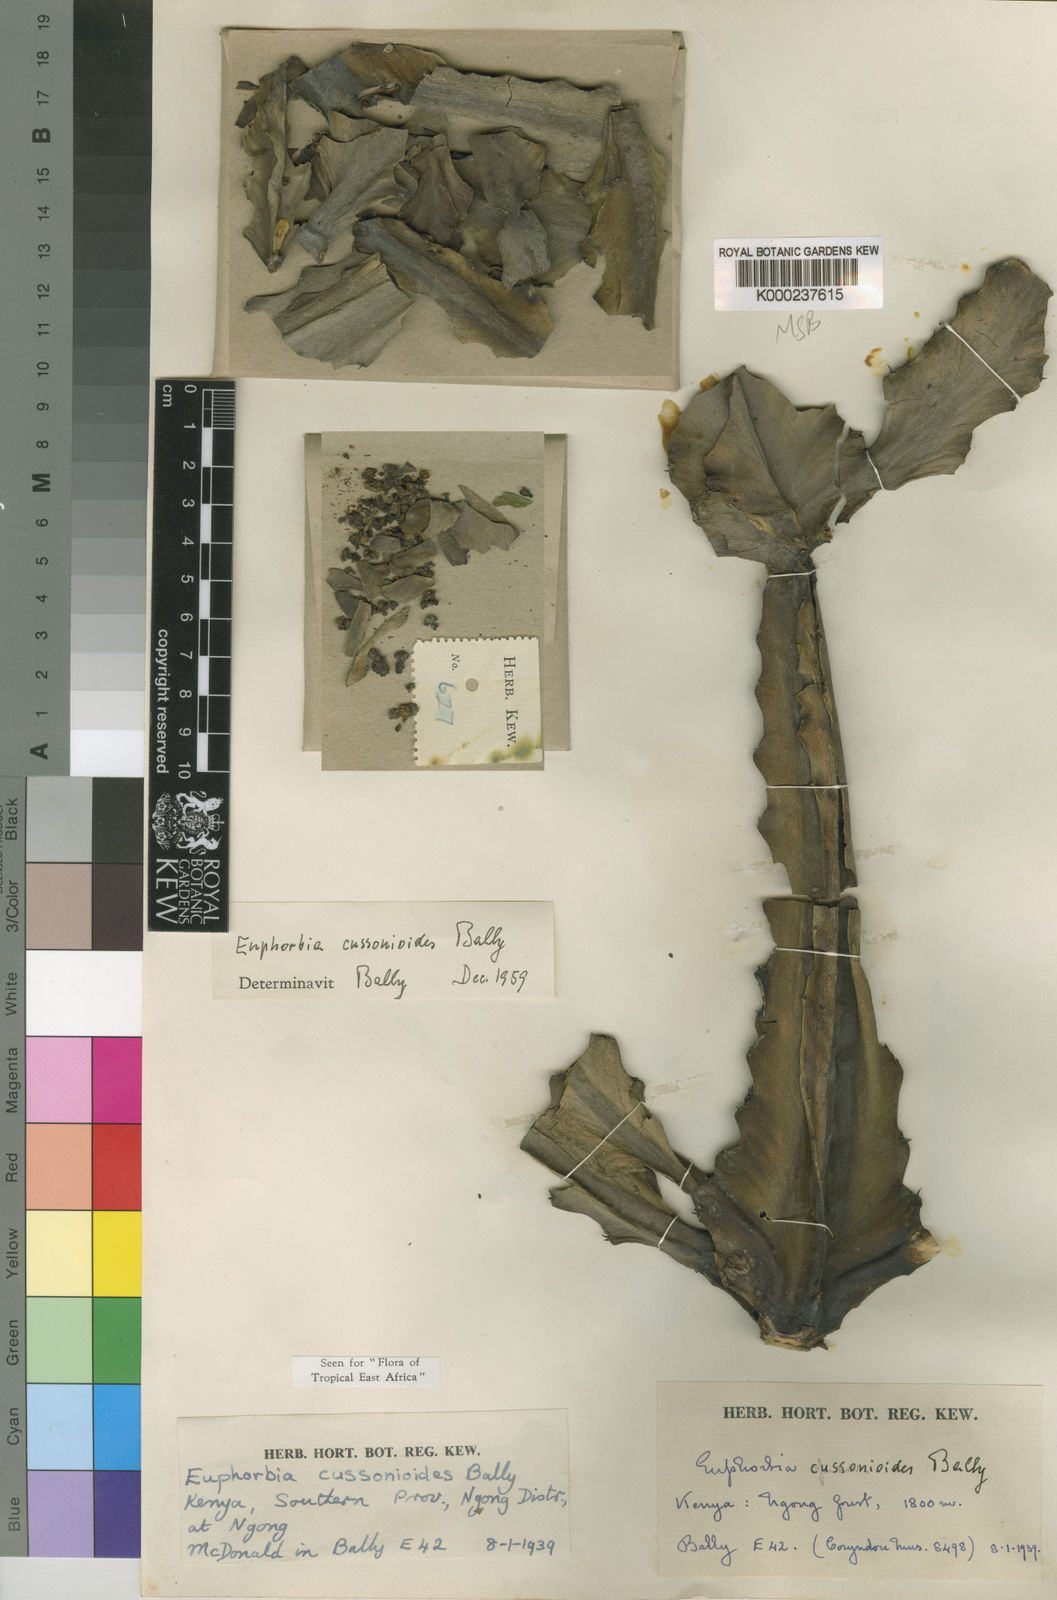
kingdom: Plantae
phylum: Tracheophyta
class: Magnoliopsida
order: Malpighiales
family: Euphorbiaceae
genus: Euphorbia
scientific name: Euphorbia cussonioides
